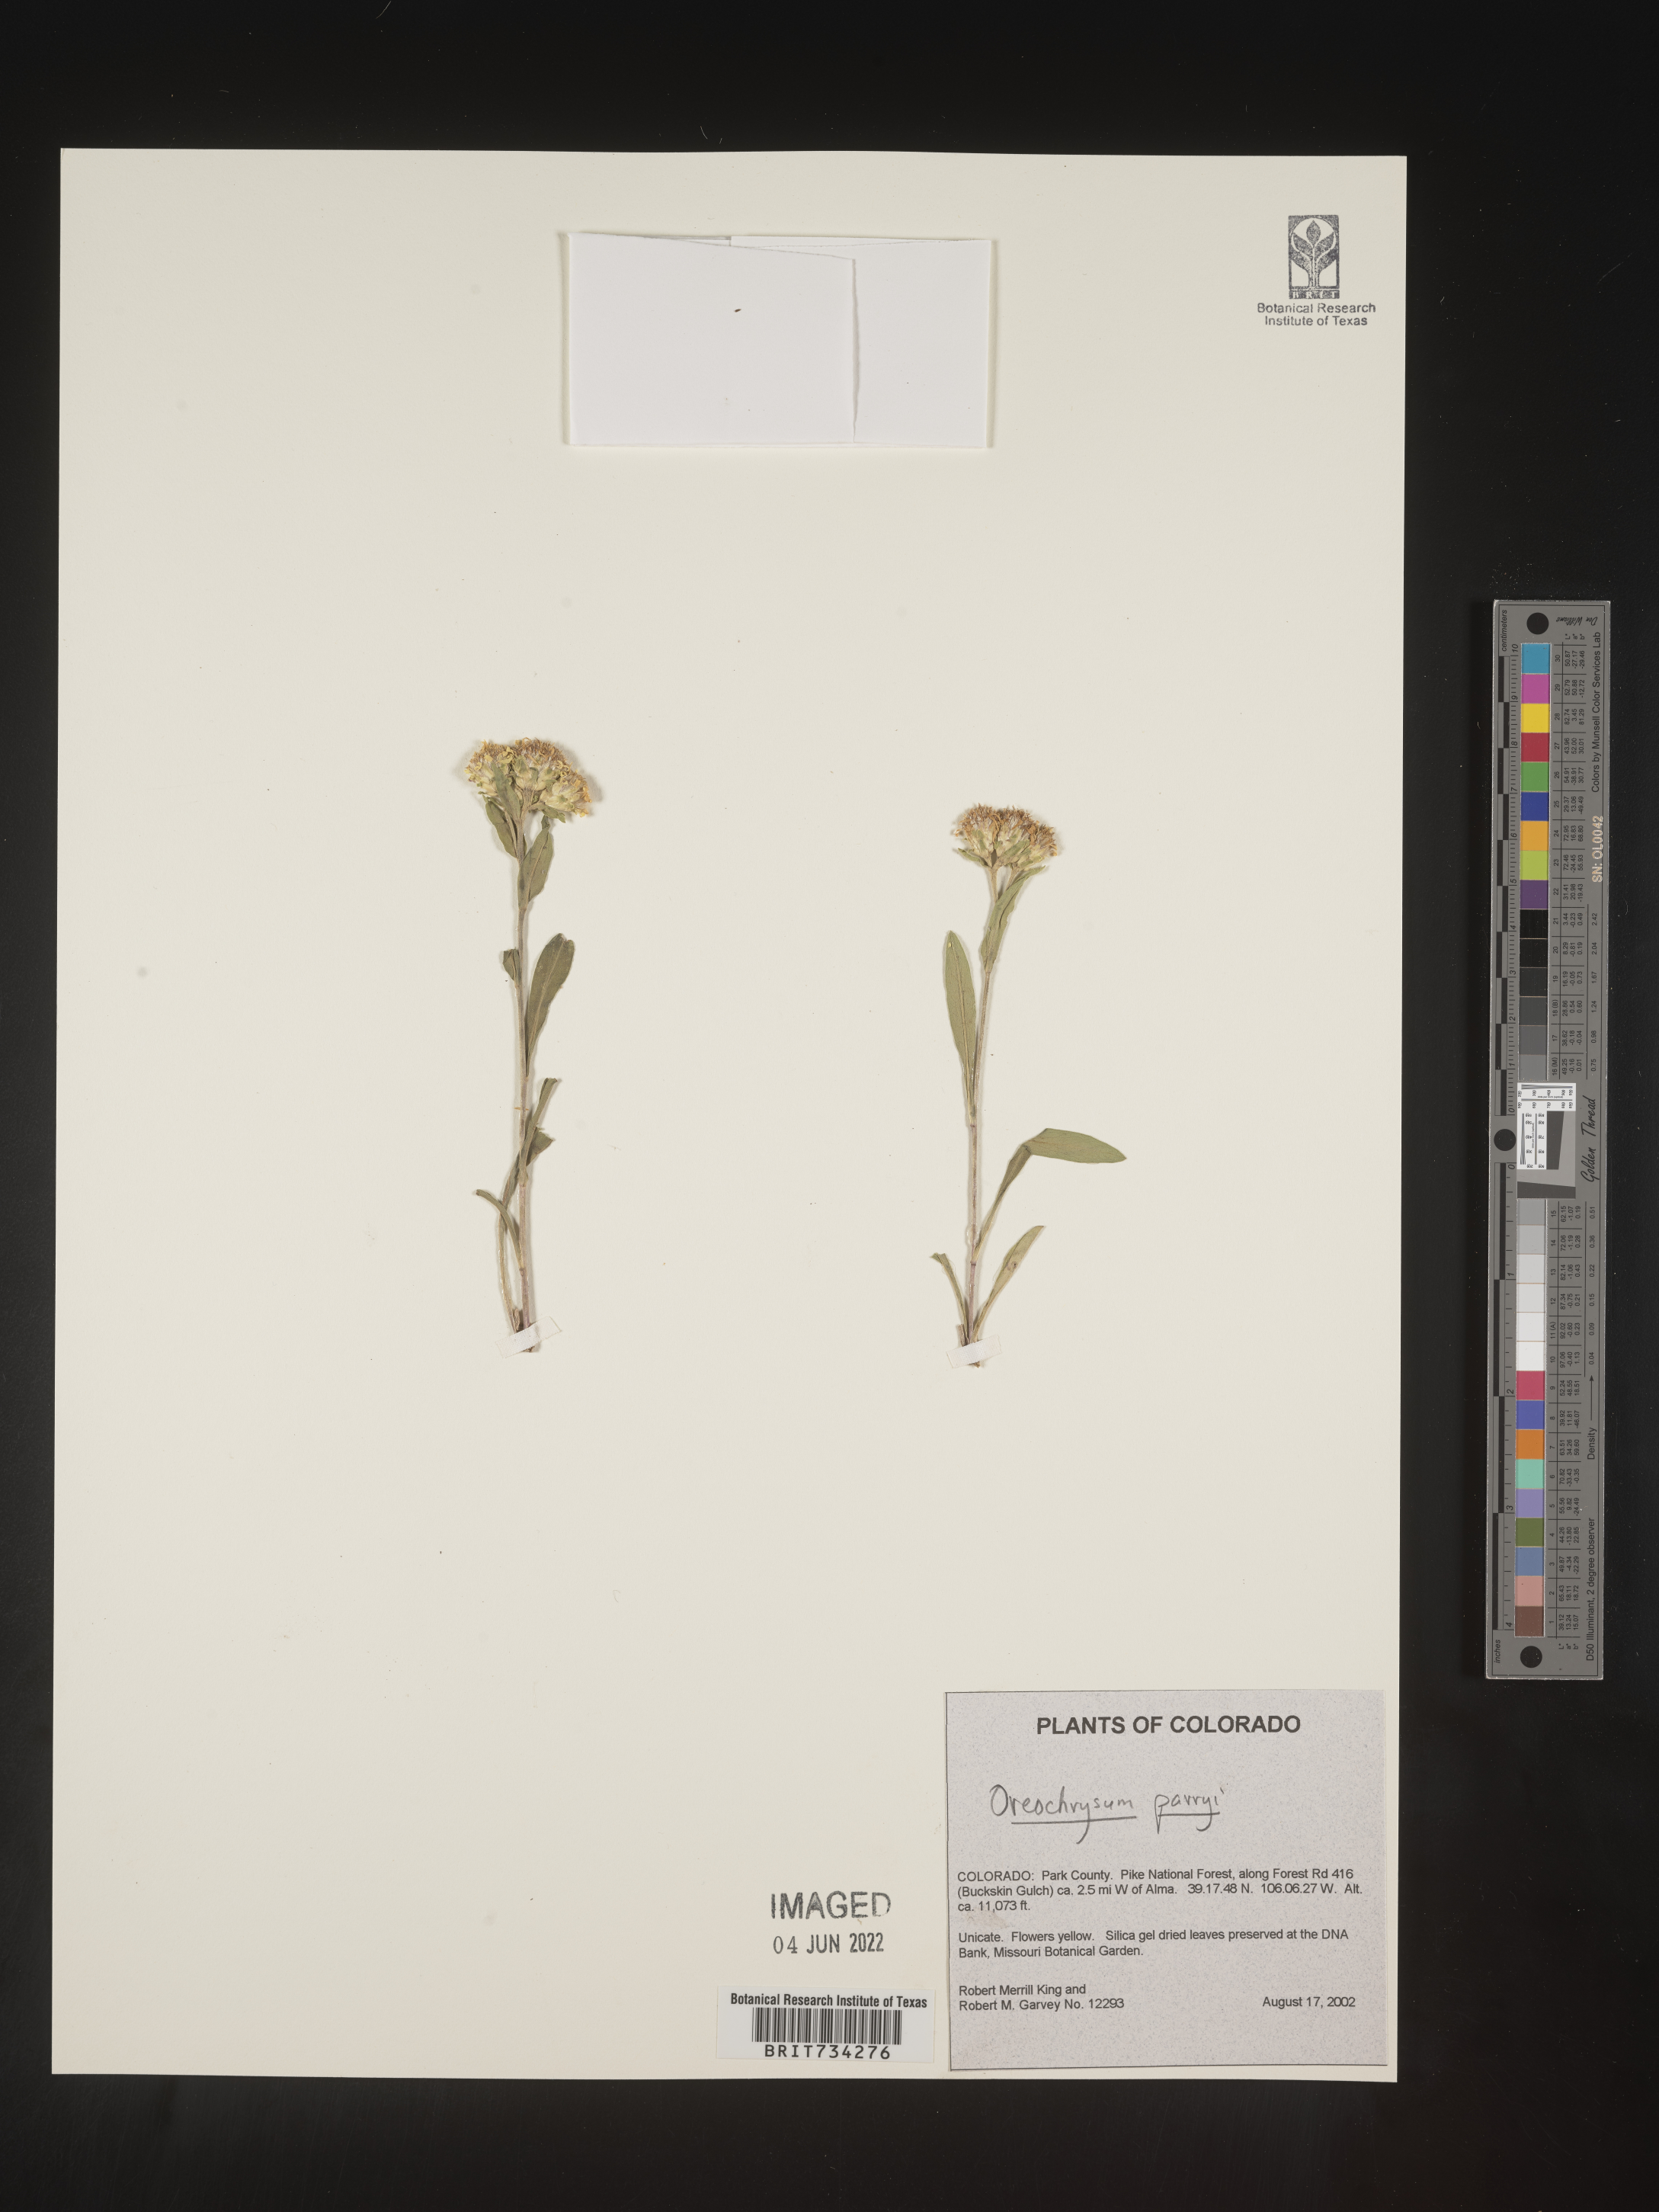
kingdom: Plantae
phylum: Tracheophyta
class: Magnoliopsida
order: Asterales
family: Asteraceae
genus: Oreochrysum
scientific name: Oreochrysum parryi
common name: Parry's goldenweed
